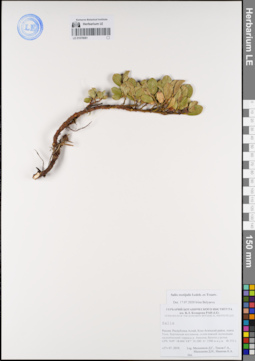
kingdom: Plantae
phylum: Tracheophyta
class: Magnoliopsida
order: Malpighiales
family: Salicaceae
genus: Salix
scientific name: Salix rectijulis
